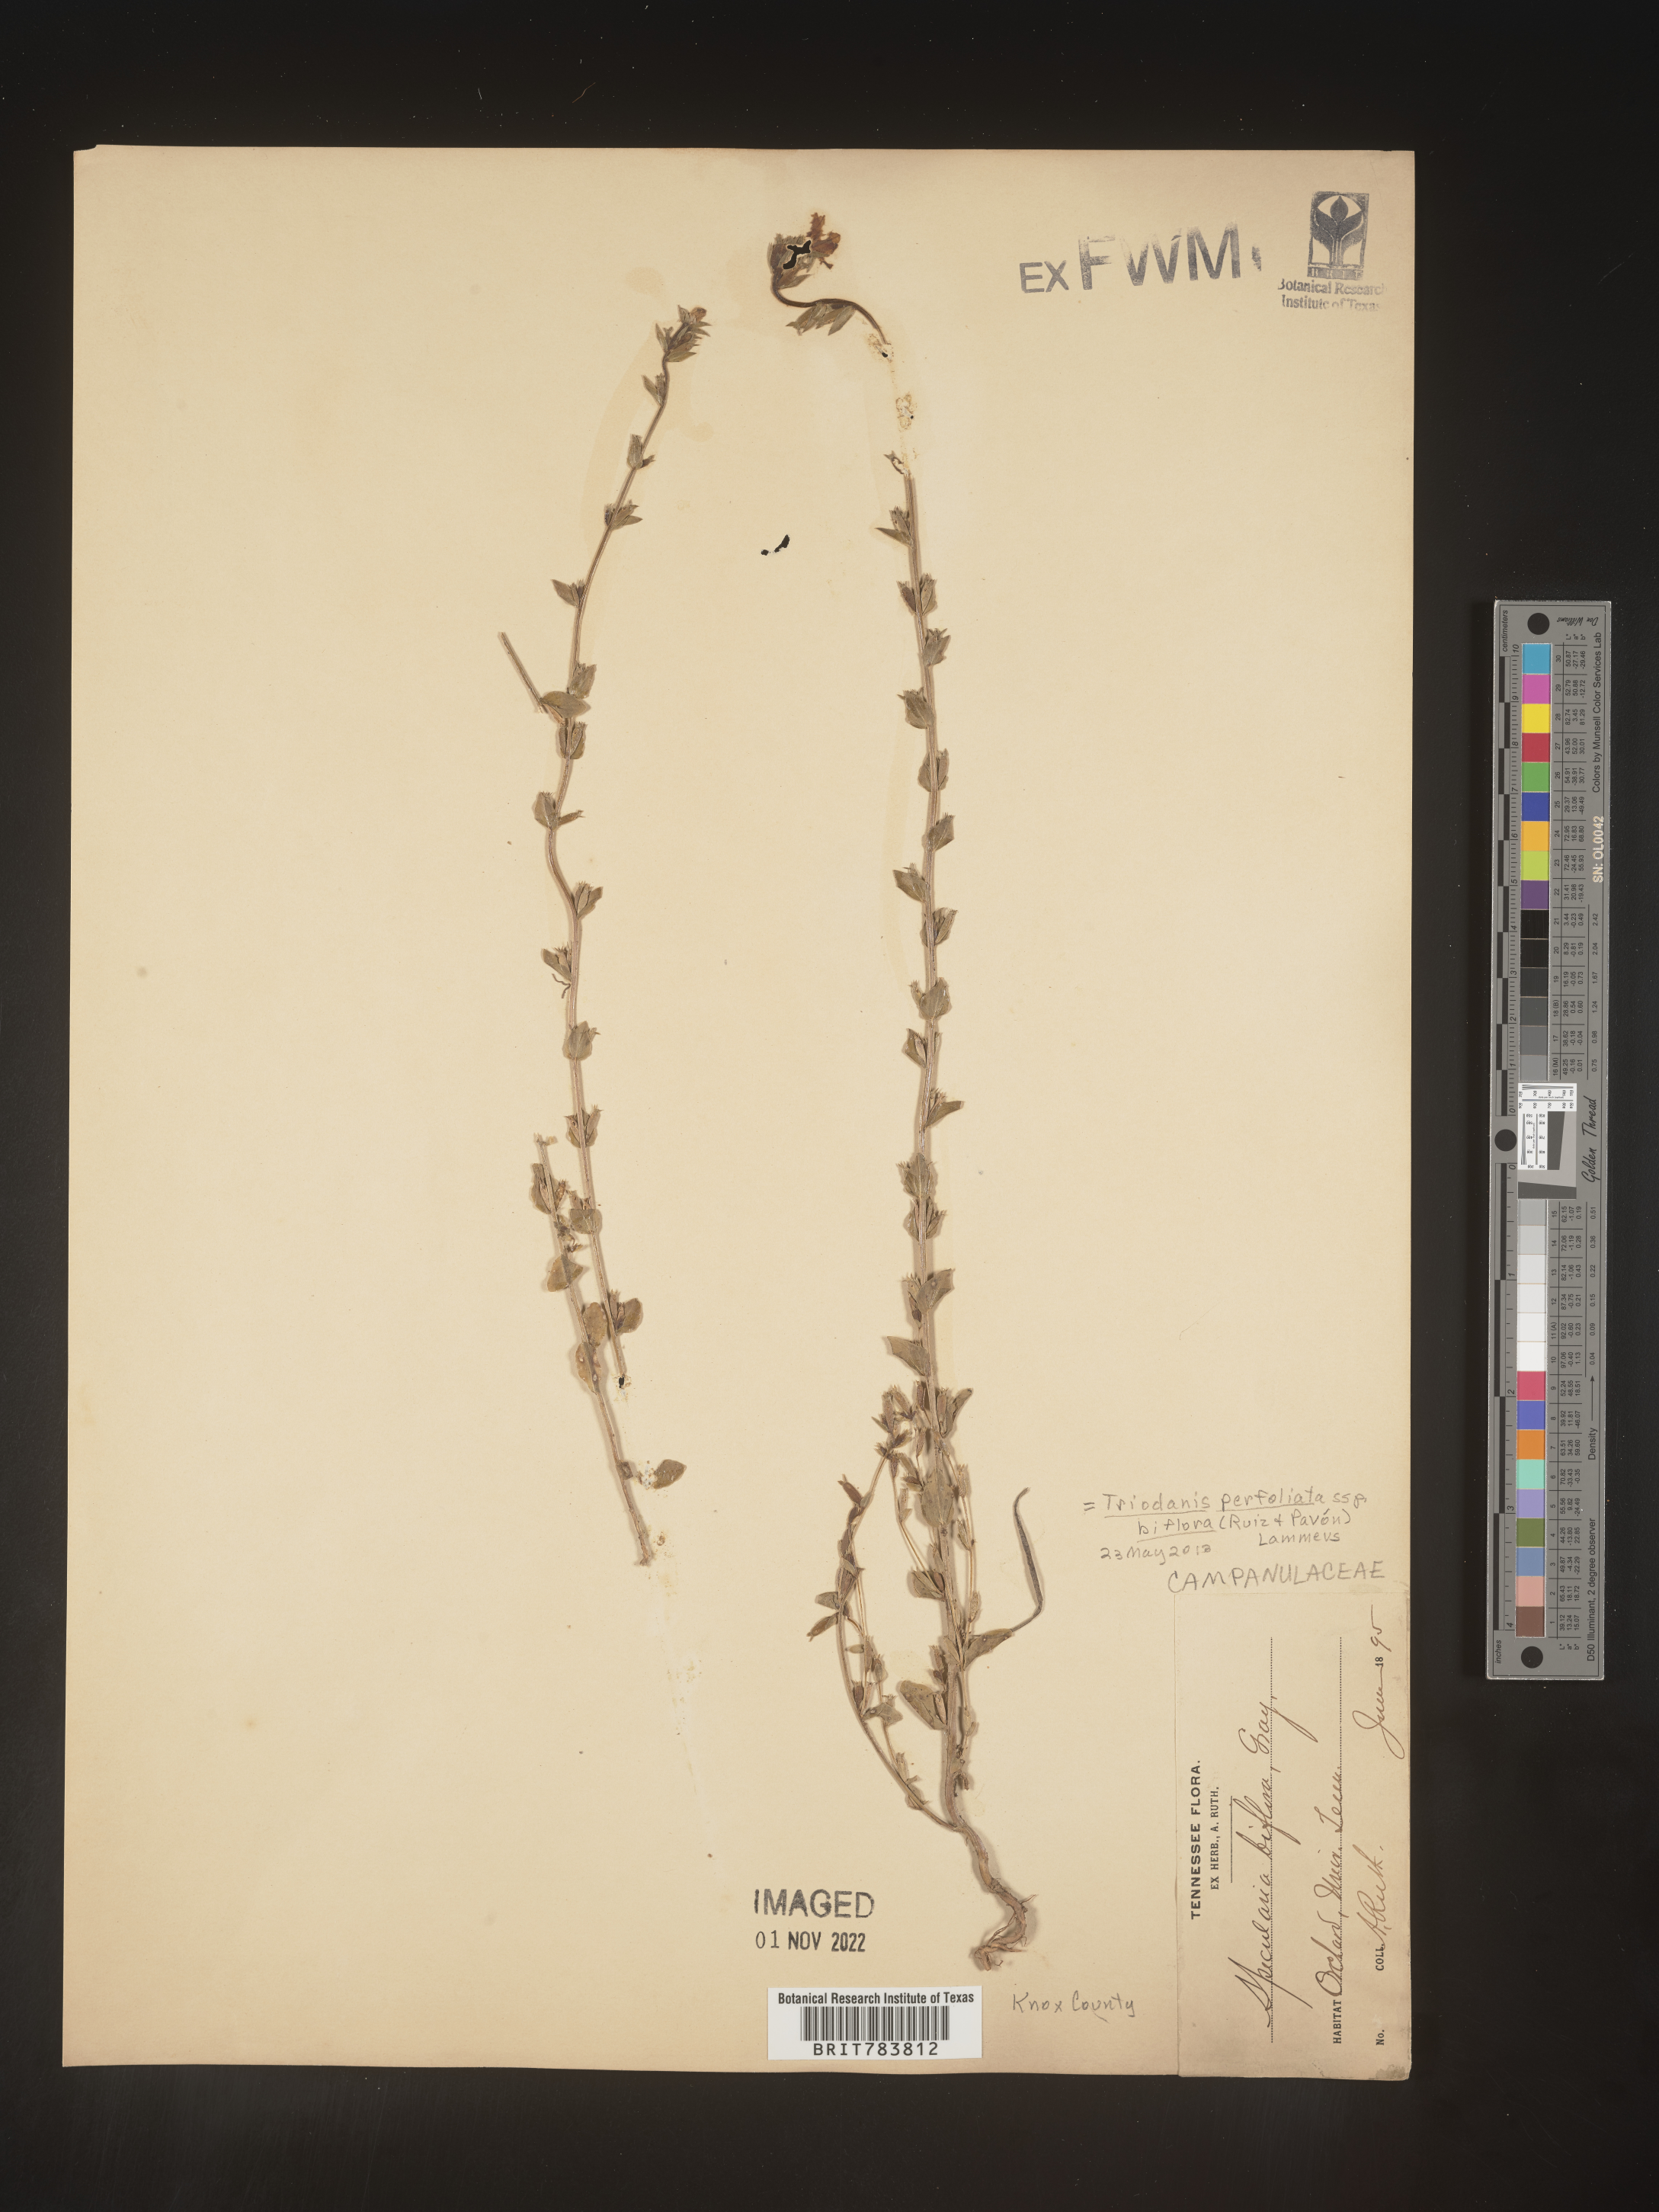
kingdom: Plantae
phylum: Tracheophyta
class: Magnoliopsida
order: Asterales
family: Campanulaceae
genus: Triodanis
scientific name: Triodanis perfoliata
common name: Clasping venus' looking-glass
